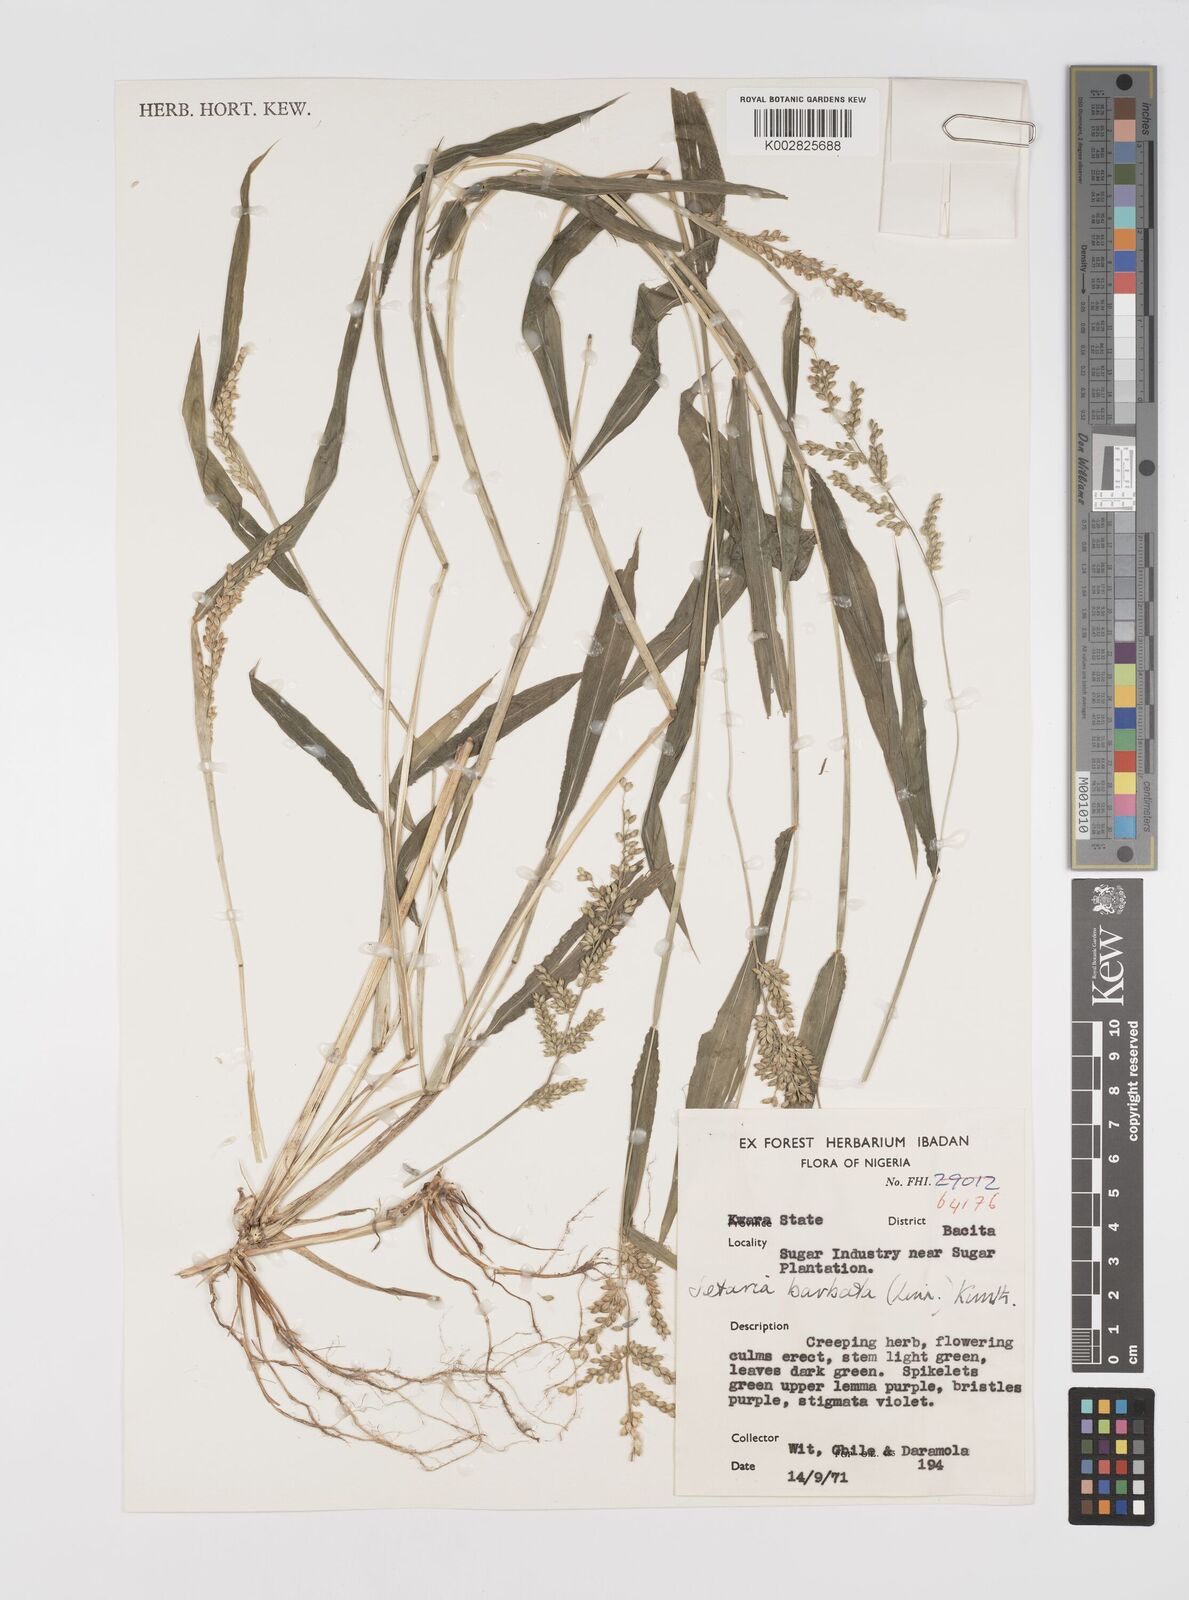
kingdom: Plantae
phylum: Tracheophyta
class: Liliopsida
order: Poales
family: Poaceae
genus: Setaria
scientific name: Setaria barbata
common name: East indian bristlegrass
